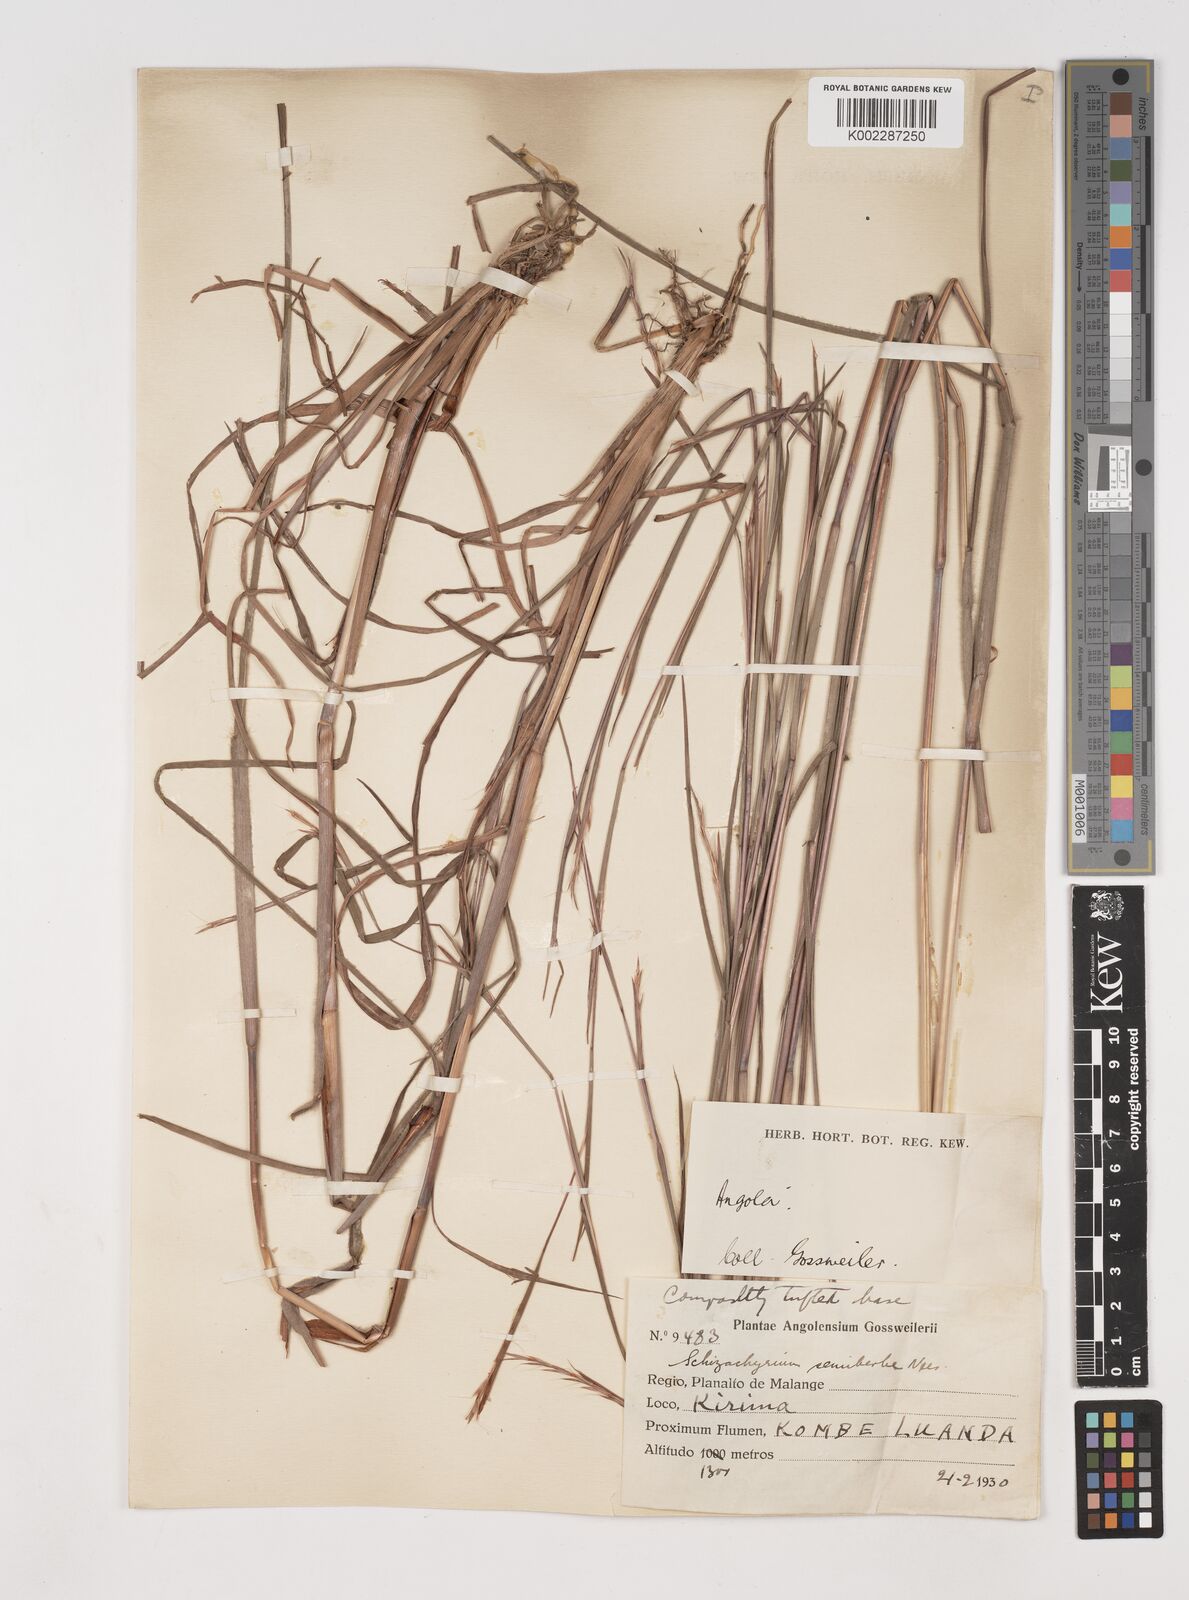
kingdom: Plantae
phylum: Tracheophyta
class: Liliopsida
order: Poales
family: Poaceae
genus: Schizachyrium
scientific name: Schizachyrium sanguineum
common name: Crimson bluestem
